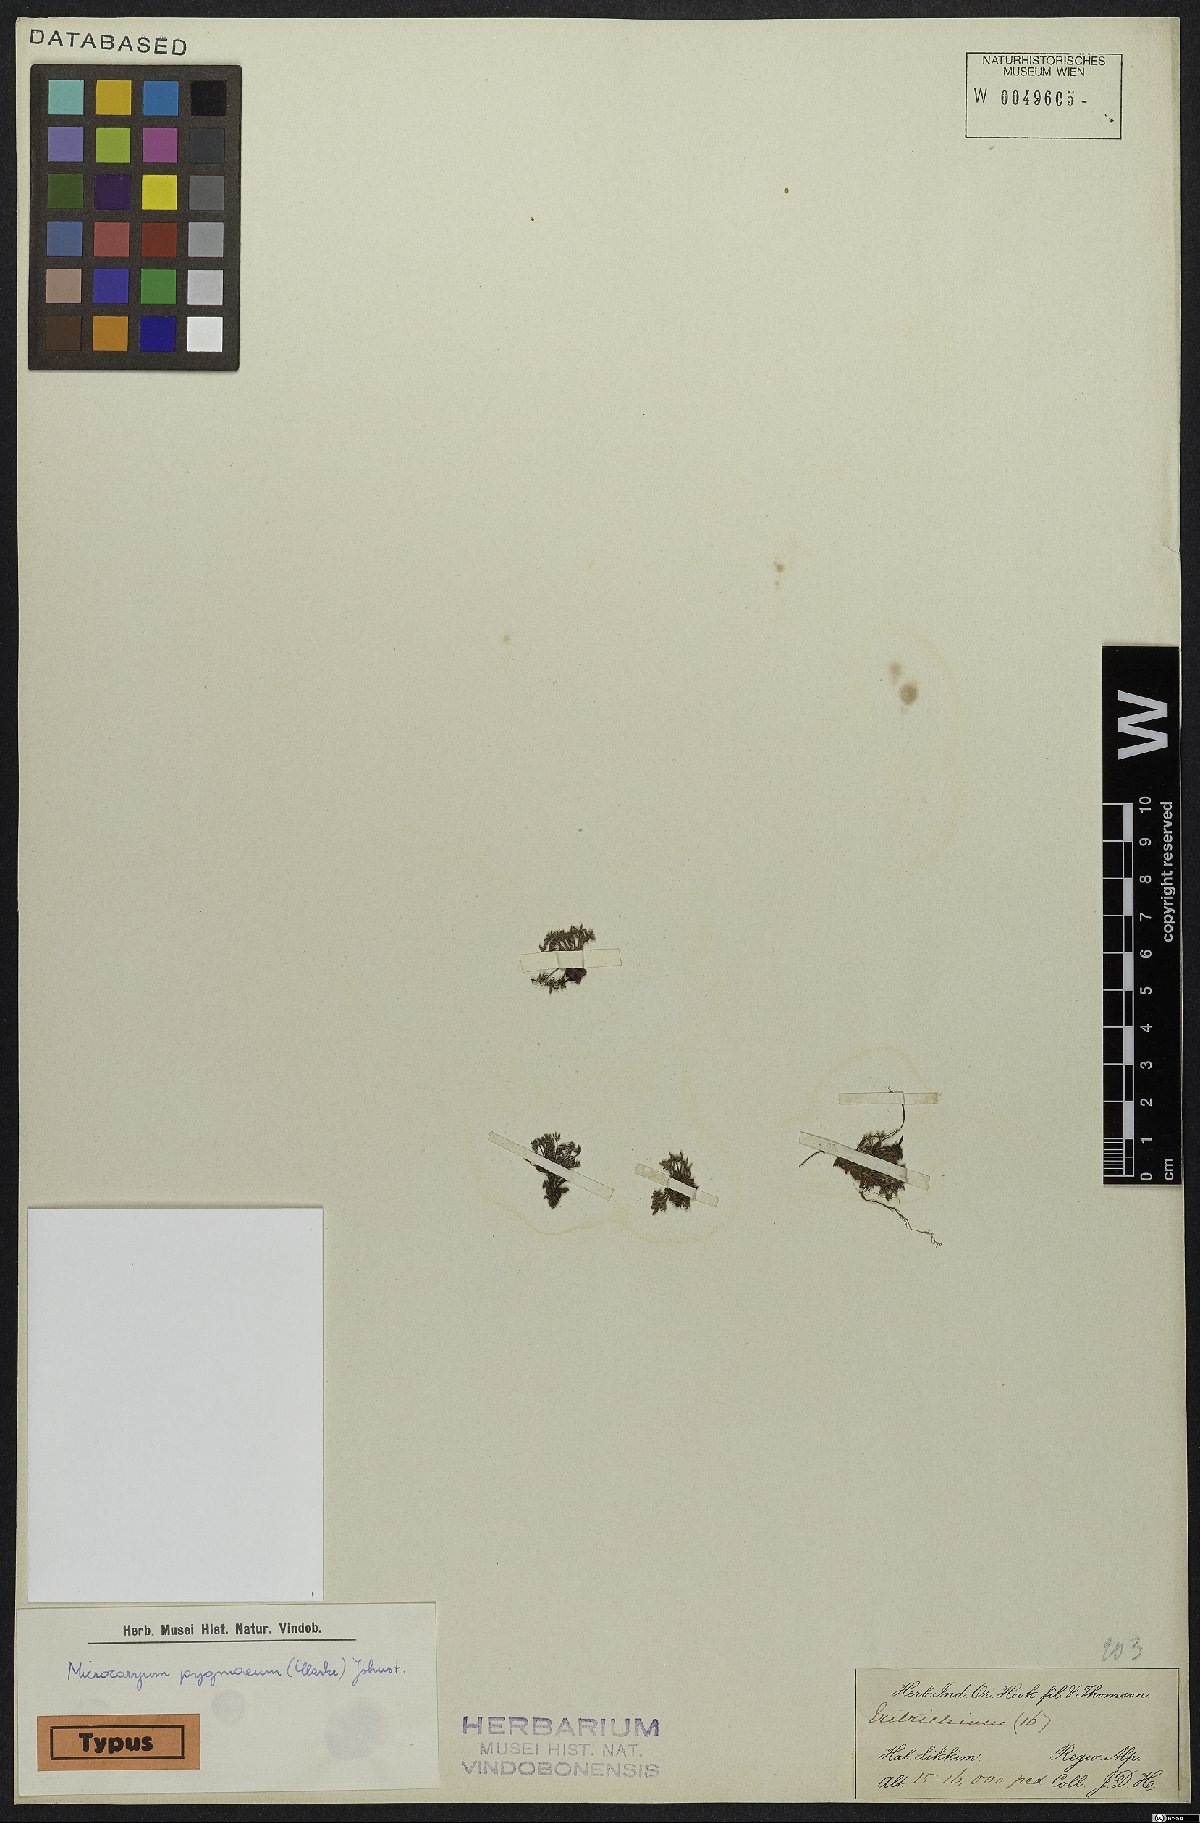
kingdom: Plantae
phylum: Tracheophyta
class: Magnoliopsida
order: Boraginales
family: Boraginaceae
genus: Microcaryum
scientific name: Microcaryum pygmaeum
